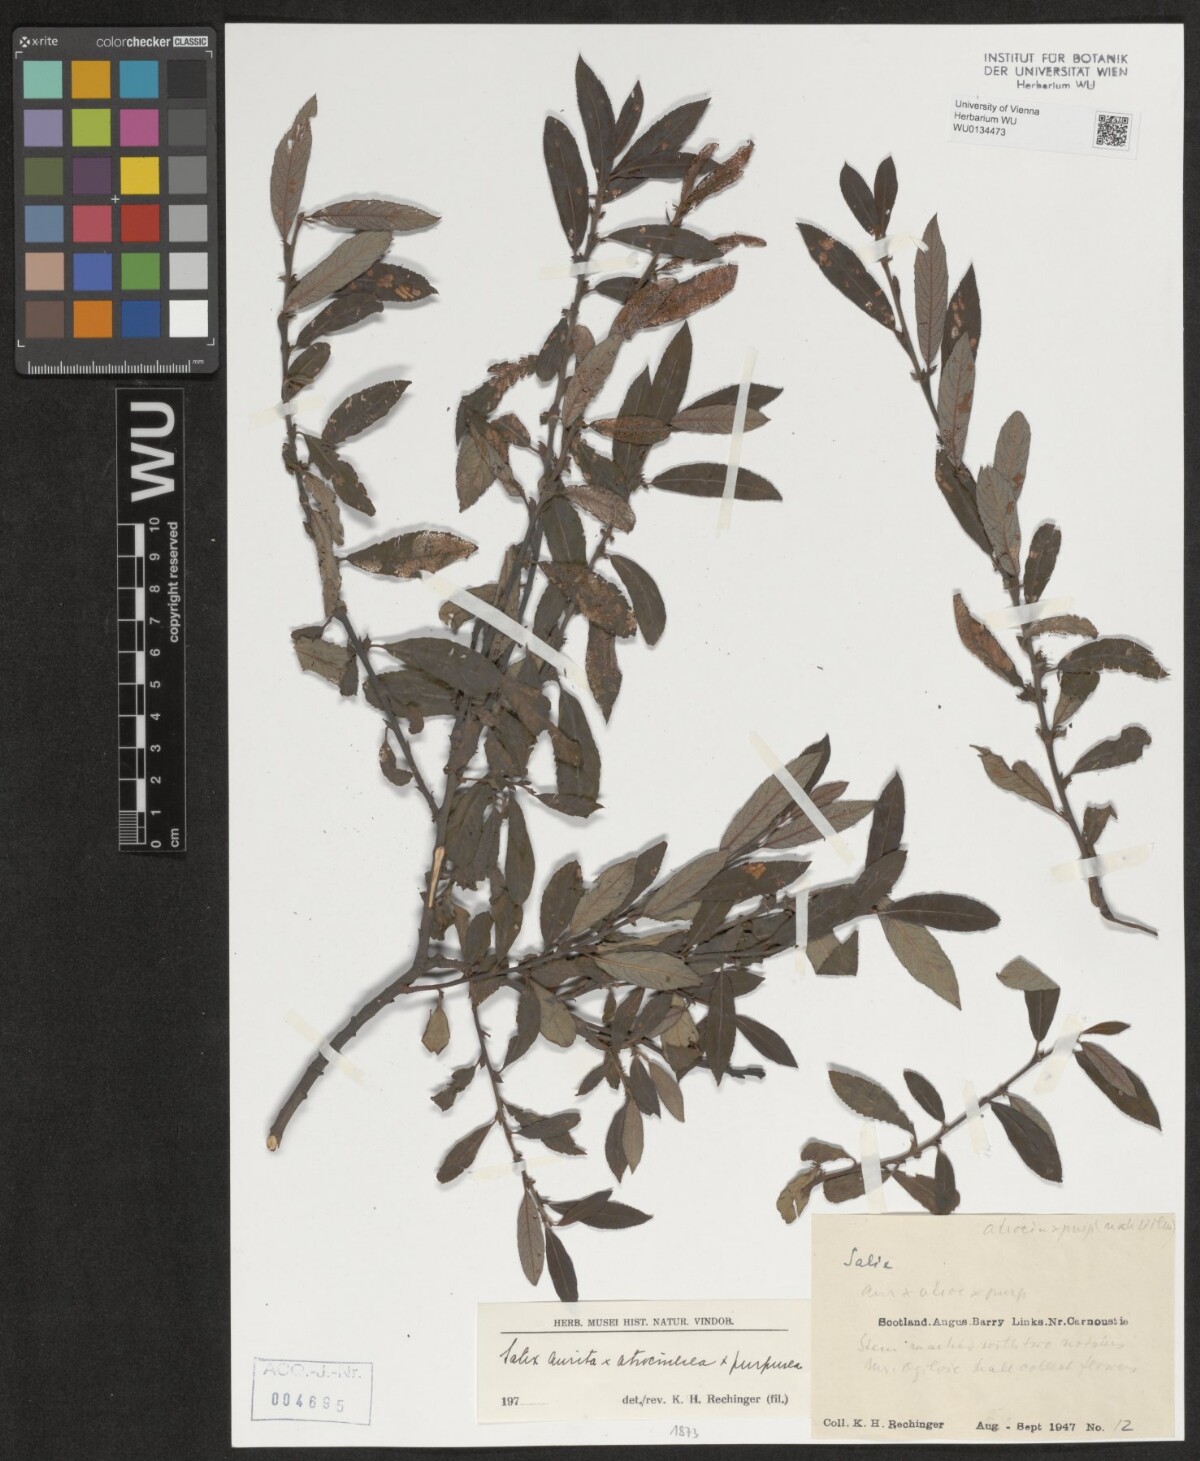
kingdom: Plantae
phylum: Tracheophyta
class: Magnoliopsida
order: Malpighiales
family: Salicaceae
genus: Salix
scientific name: Salix aurita
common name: Eared willow
